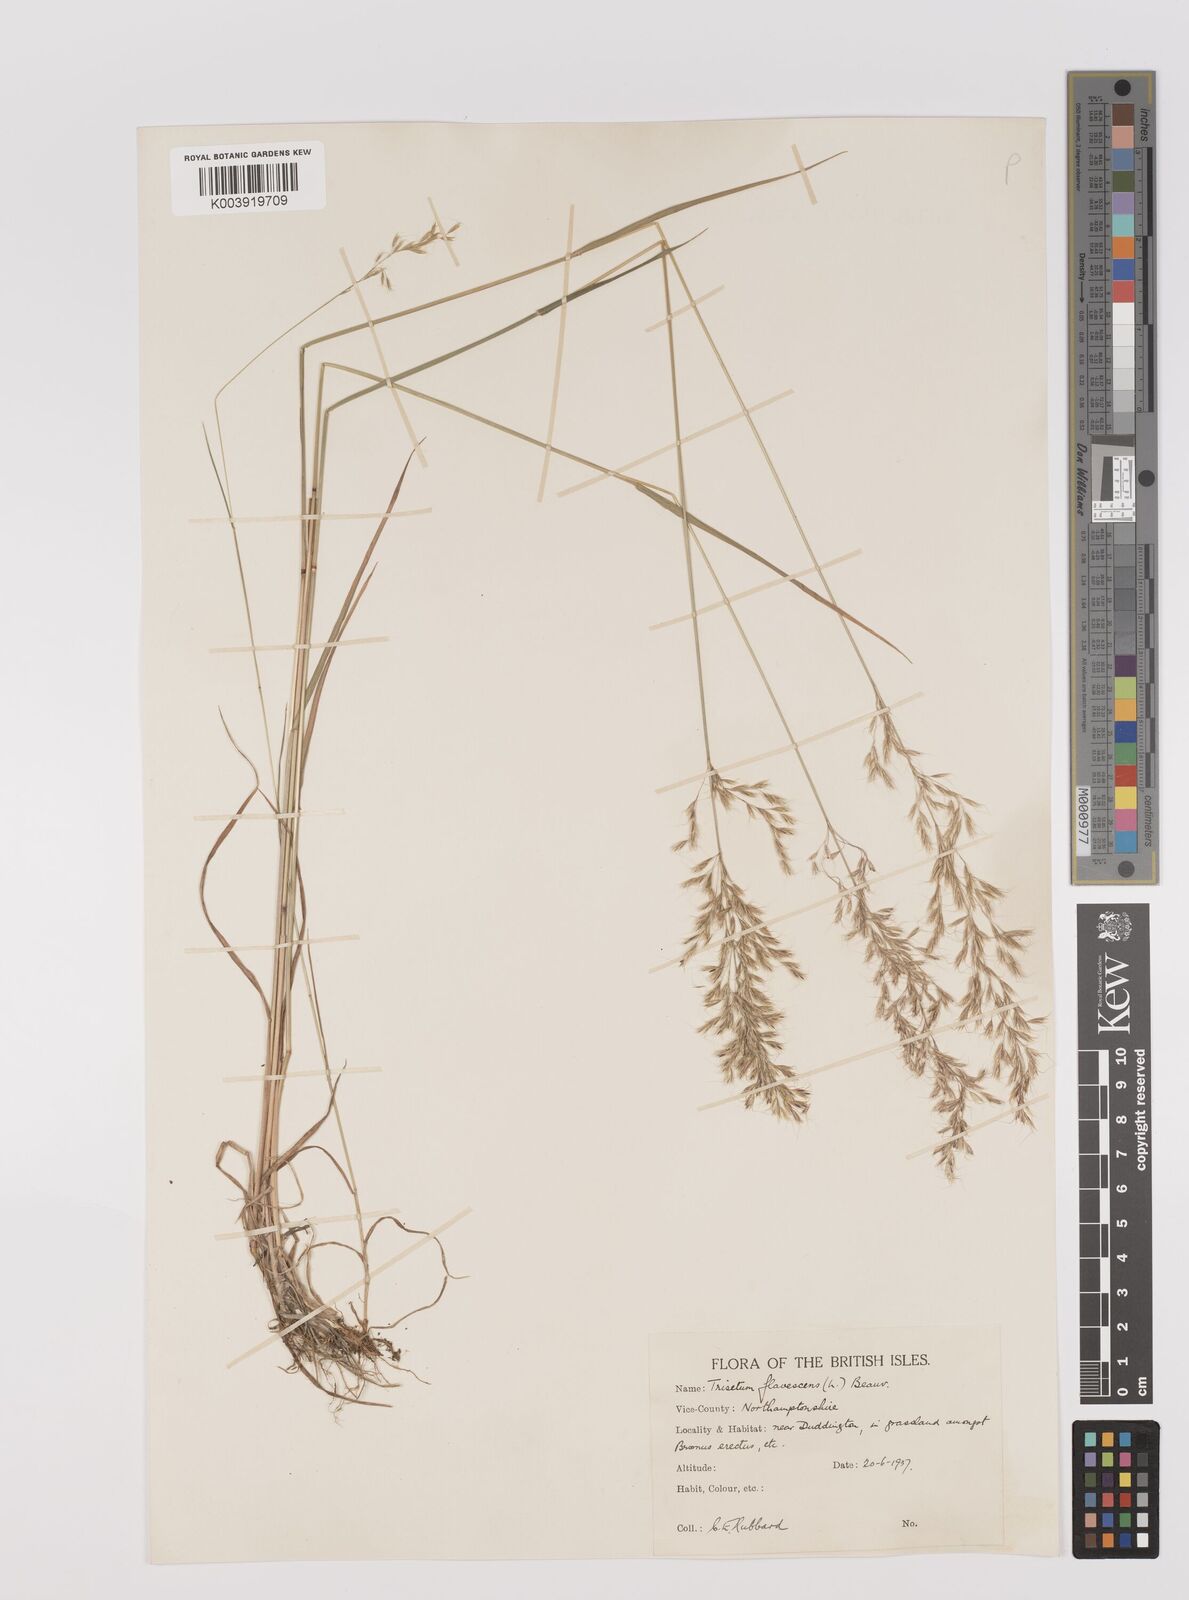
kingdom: Plantae
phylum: Tracheophyta
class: Liliopsida
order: Poales
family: Poaceae
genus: Trisetum
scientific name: Trisetum flavescens
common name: Yellow oat-grass
